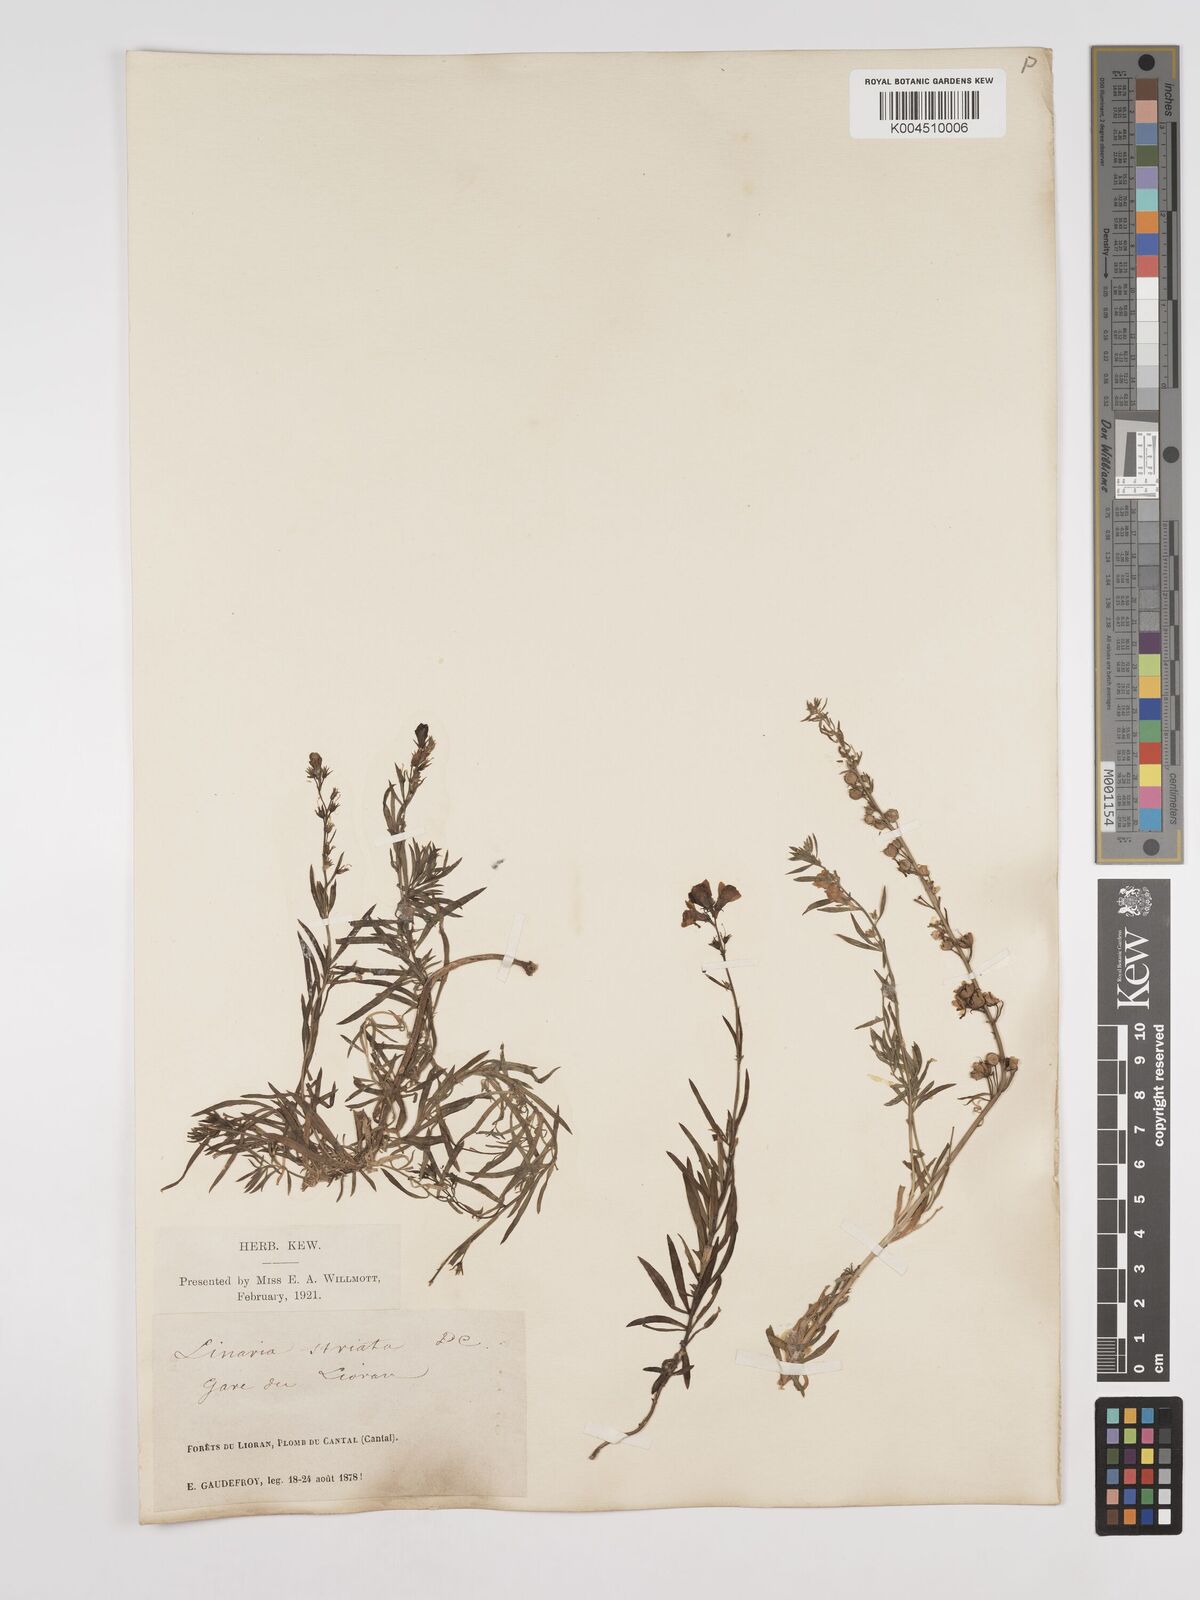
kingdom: Plantae
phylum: Tracheophyta
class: Magnoliopsida
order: Lamiales
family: Plantaginaceae
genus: Linaria
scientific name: Linaria repens
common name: Pale toadflax
